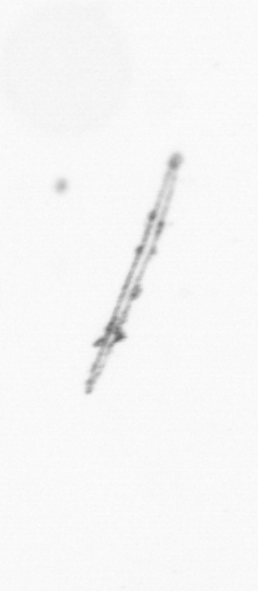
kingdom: Chromista
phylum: Ochrophyta
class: Bacillariophyceae
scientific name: Bacillariophyceae
